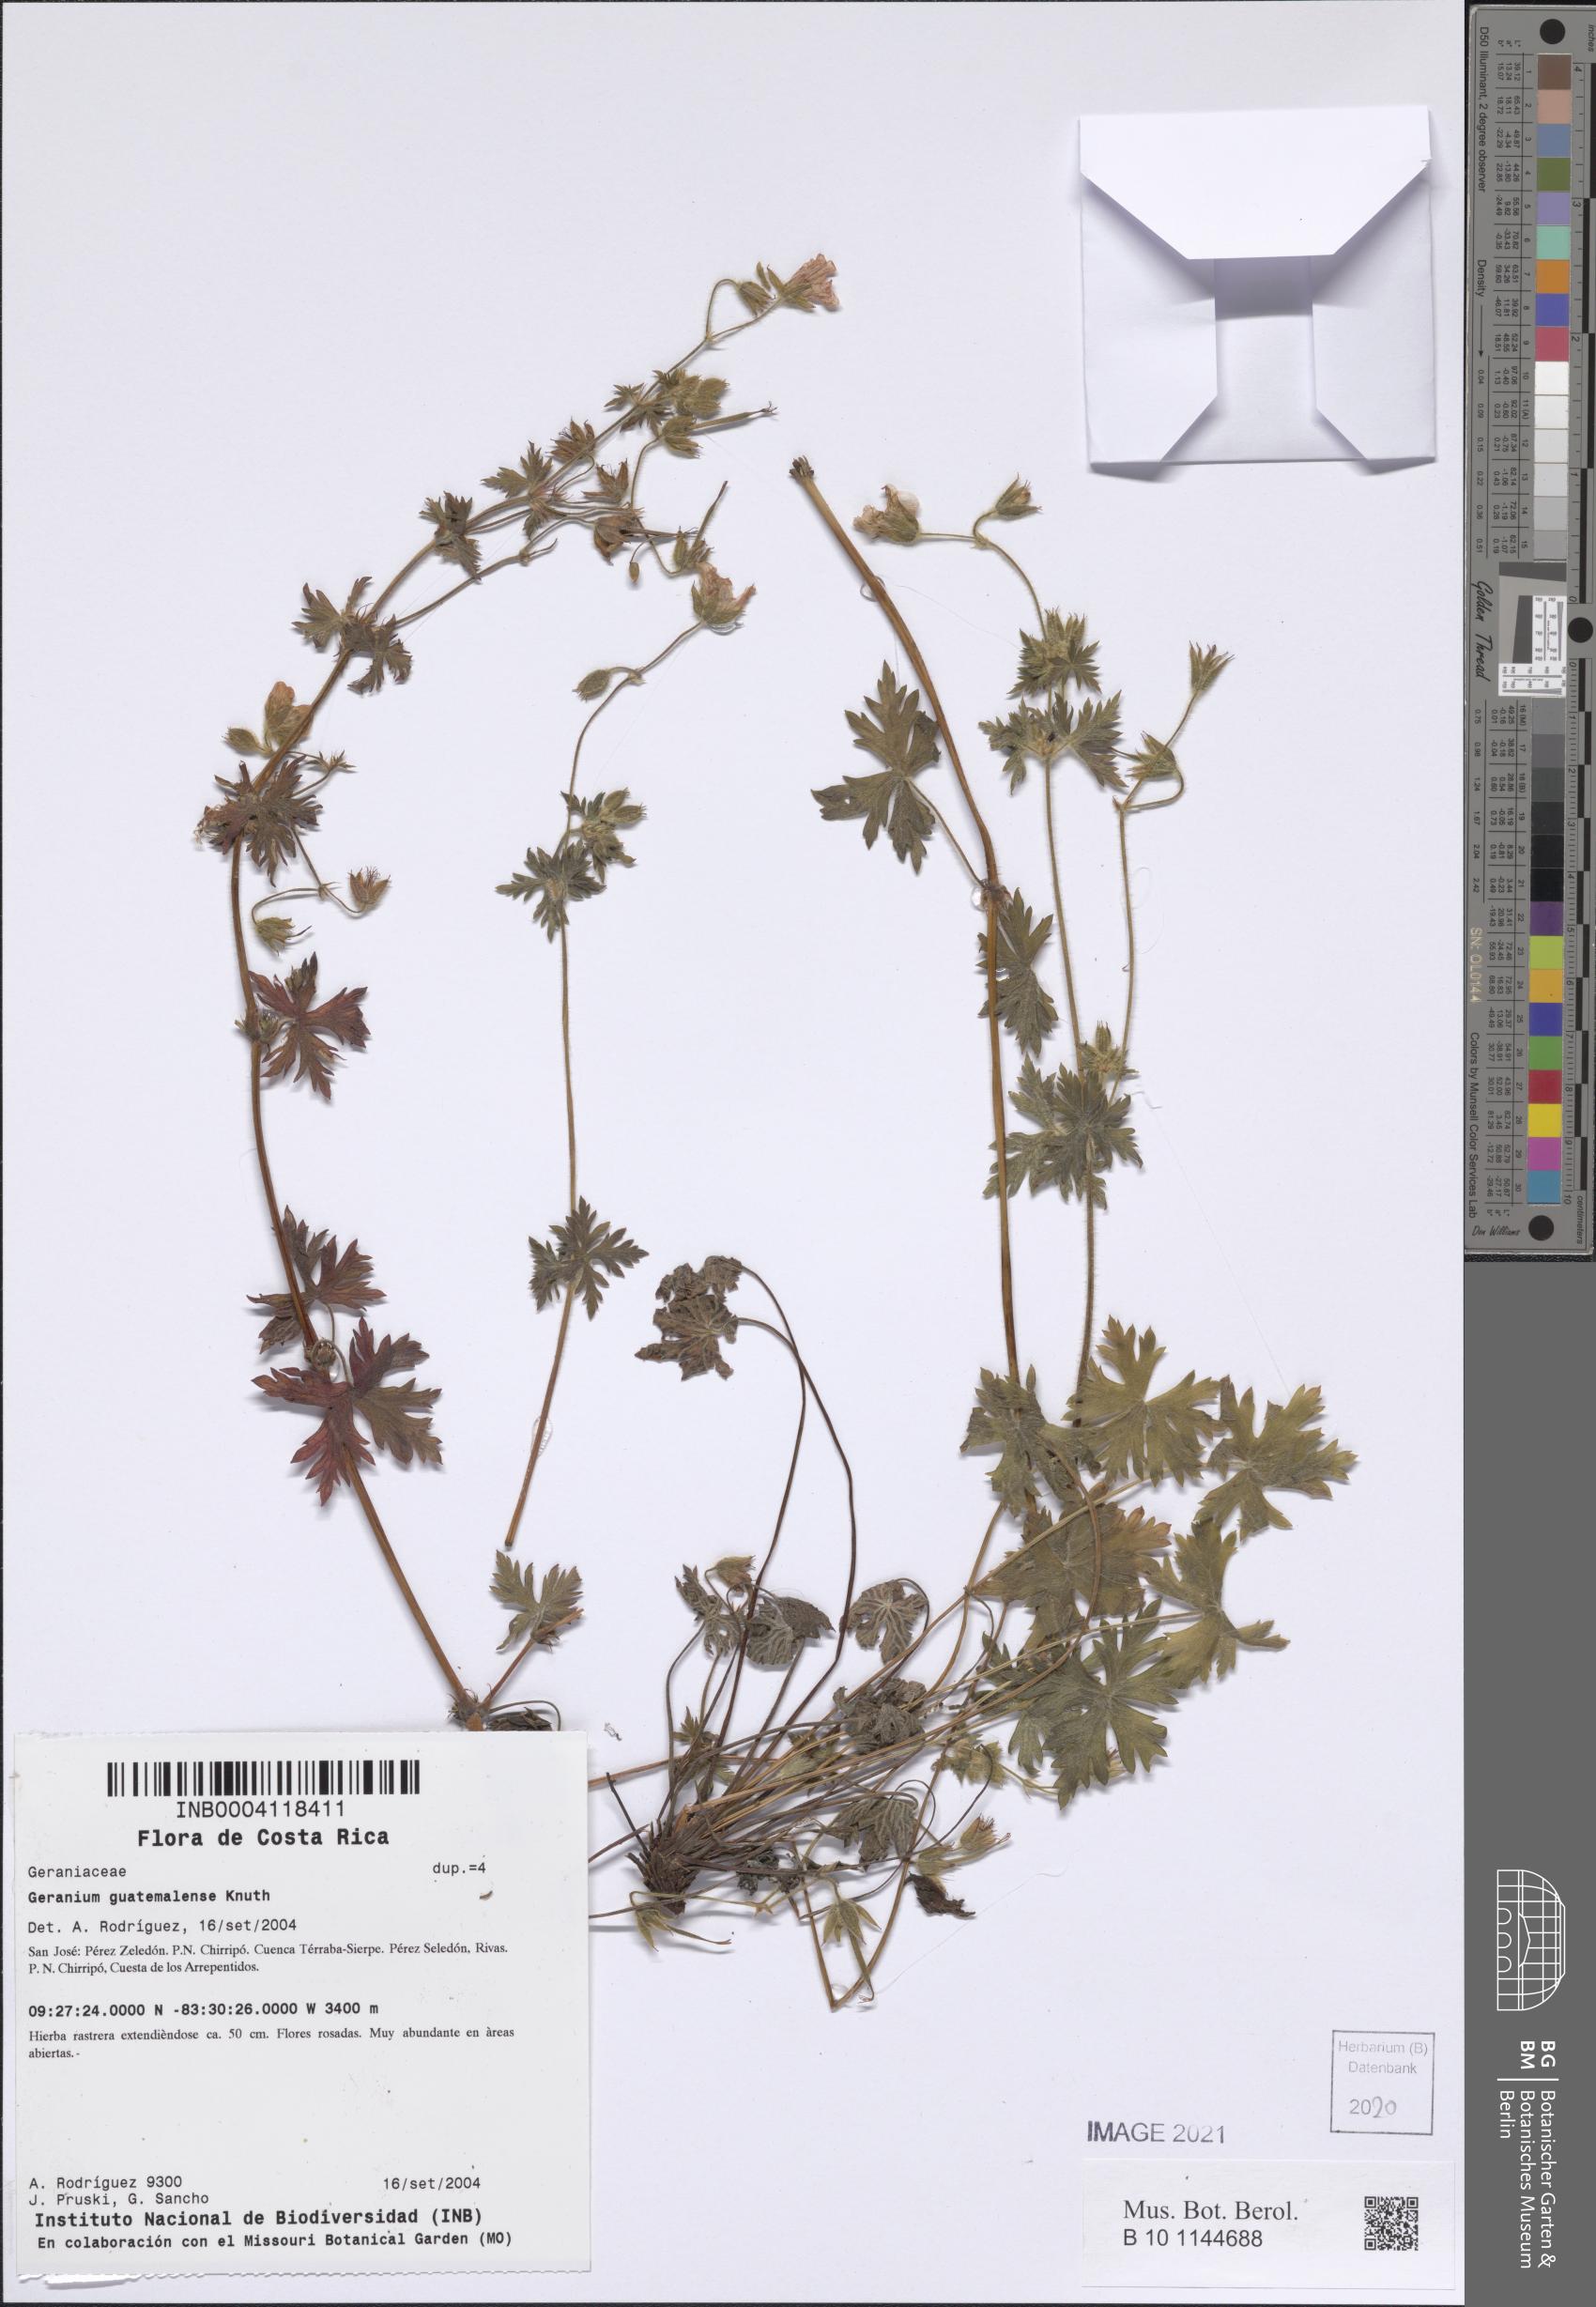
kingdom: Plantae
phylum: Tracheophyta
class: Magnoliopsida
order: Geraniales
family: Geraniaceae
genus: Geranium
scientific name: Geranium seemannii
